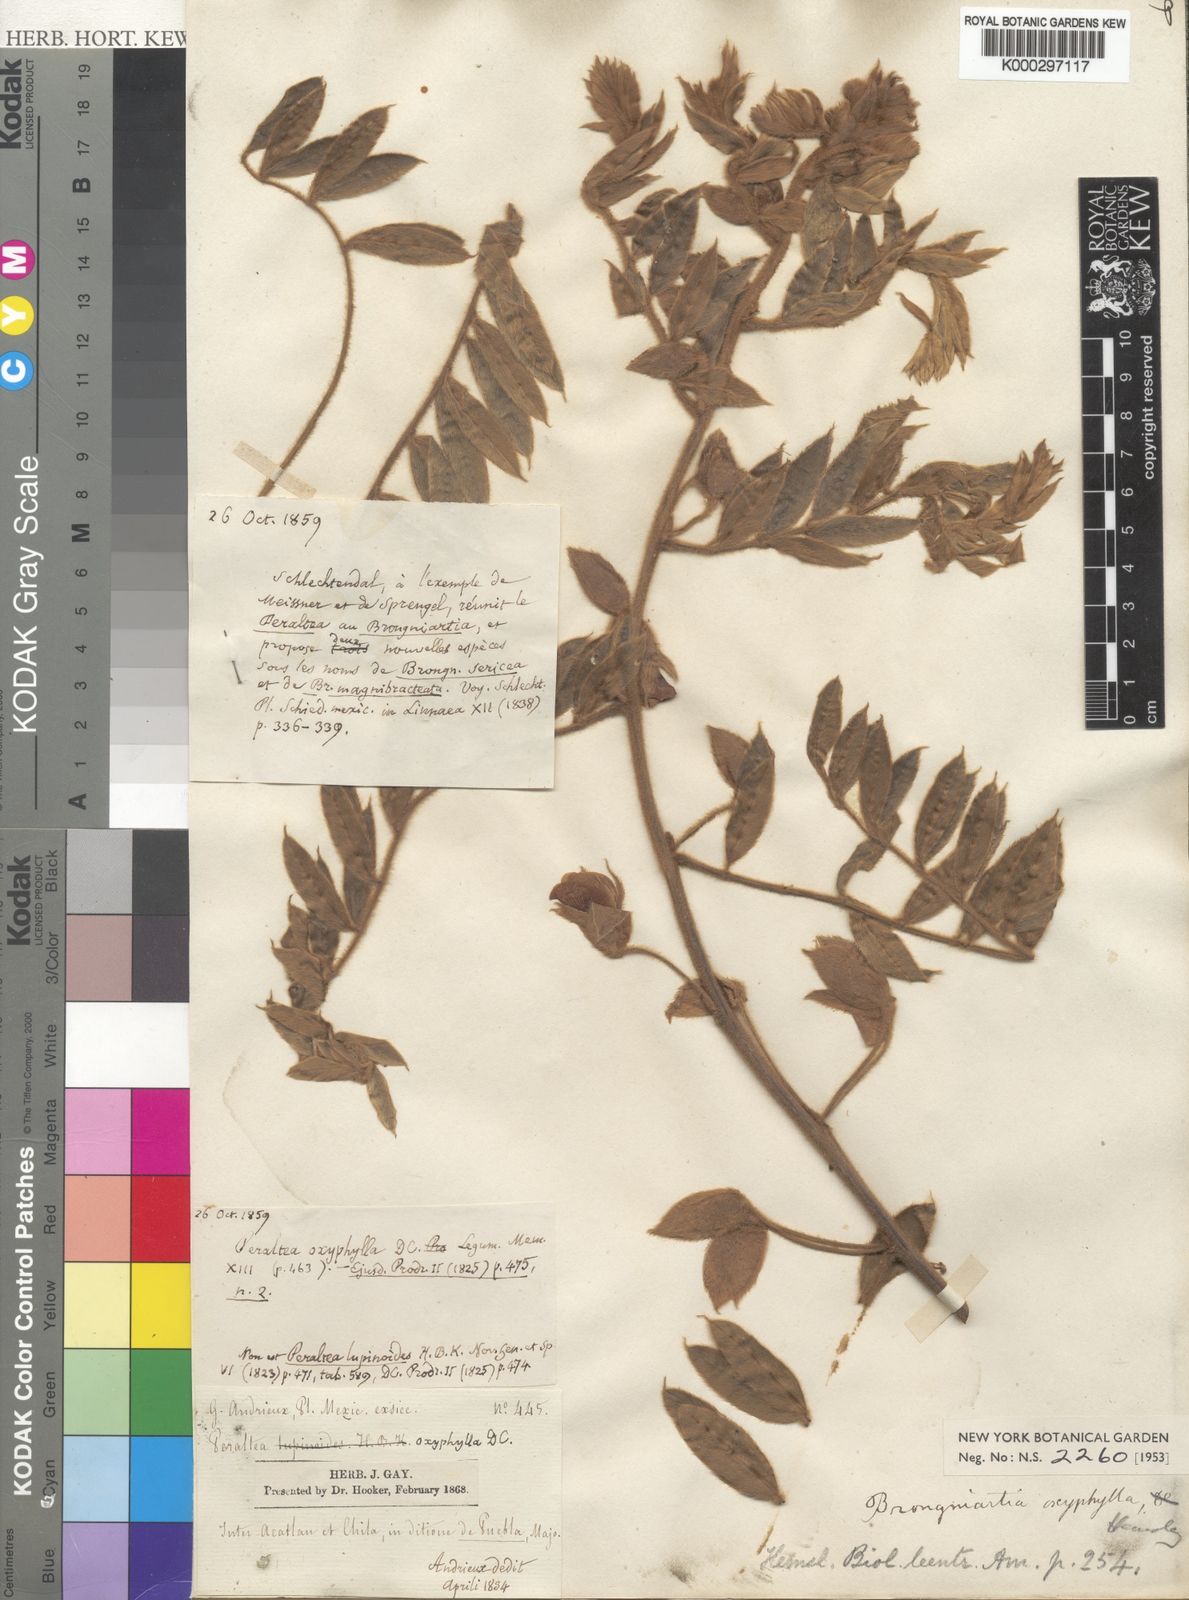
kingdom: Plantae
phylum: Tracheophyta
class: Magnoliopsida
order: Fabales
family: Fabaceae
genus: Brongniartia
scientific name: Brongniartia lupinoides
